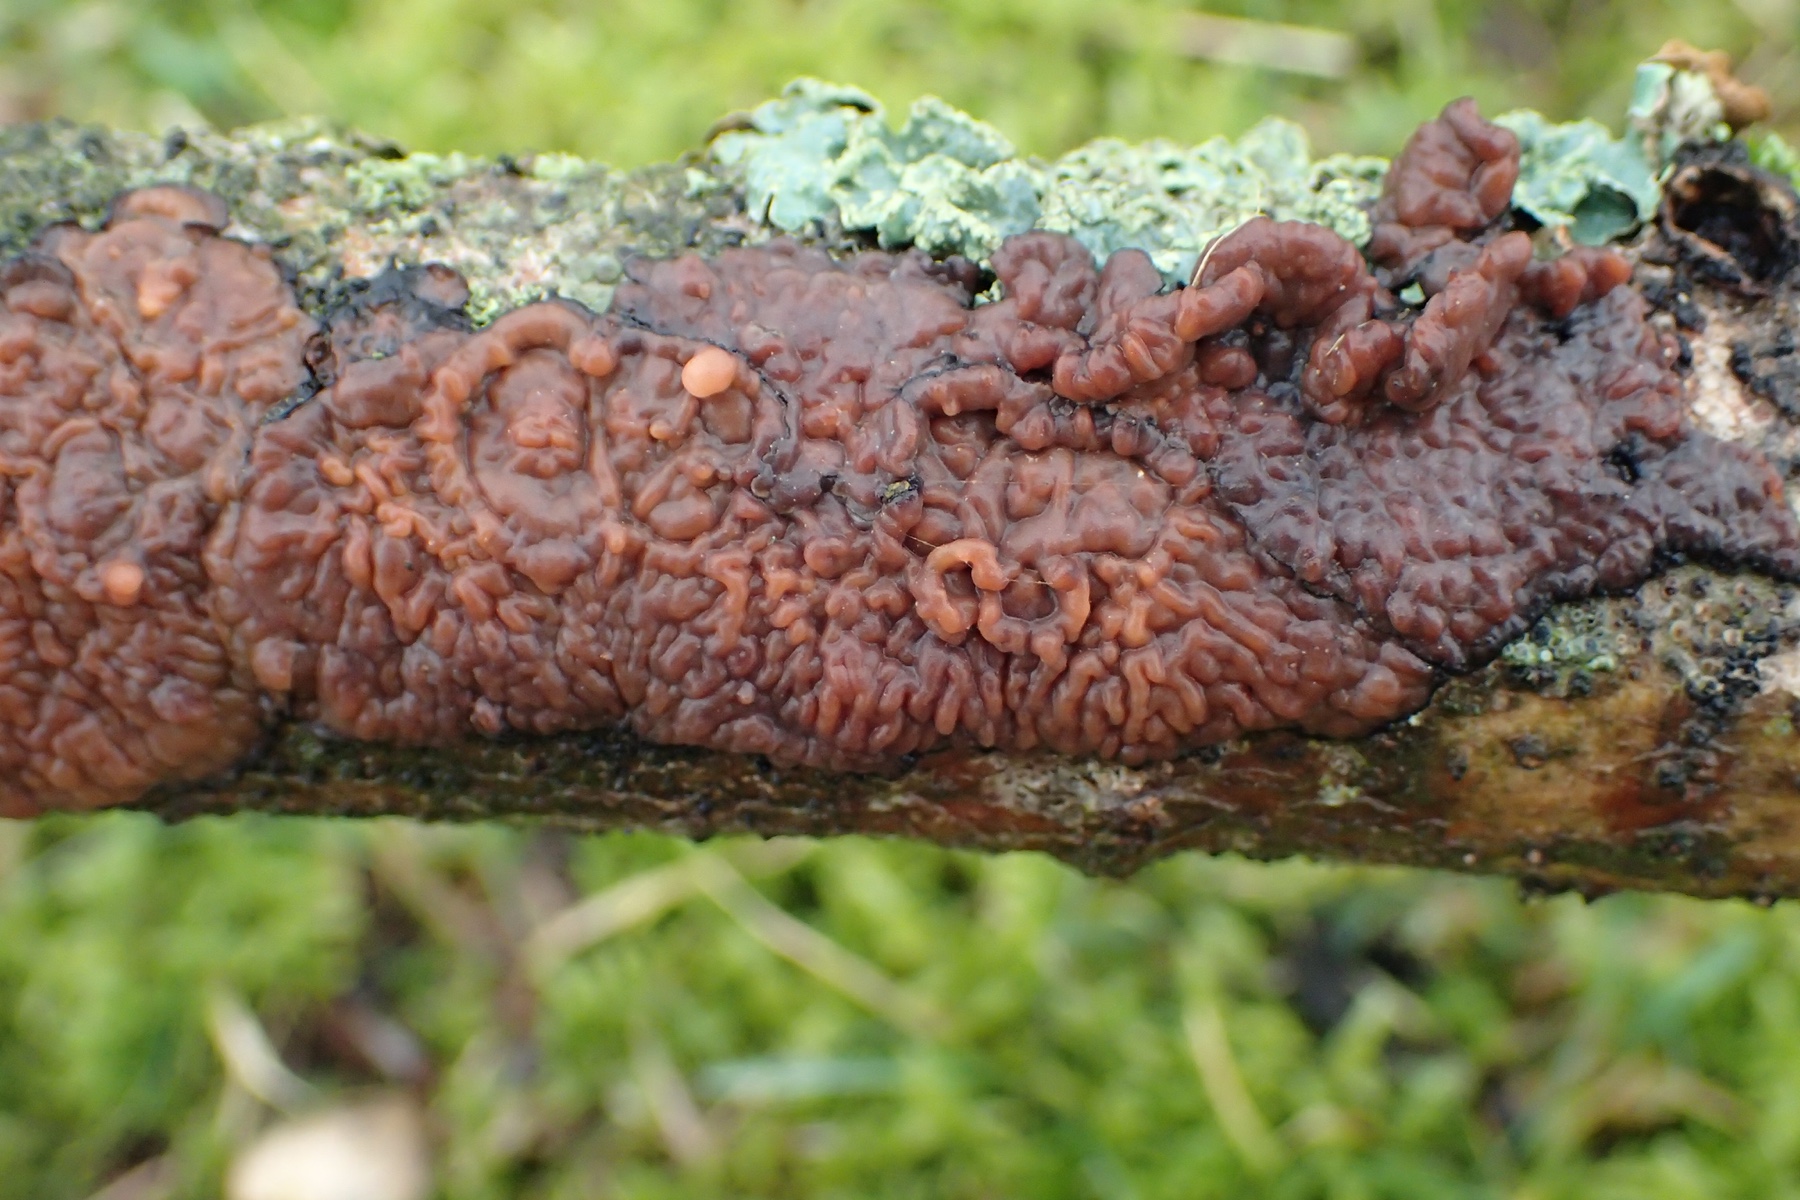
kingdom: Fungi
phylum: Basidiomycota
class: Agaricomycetes
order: Russulales
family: Peniophoraceae
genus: Peniophora
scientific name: Peniophora quercina
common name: ege-voksskind
